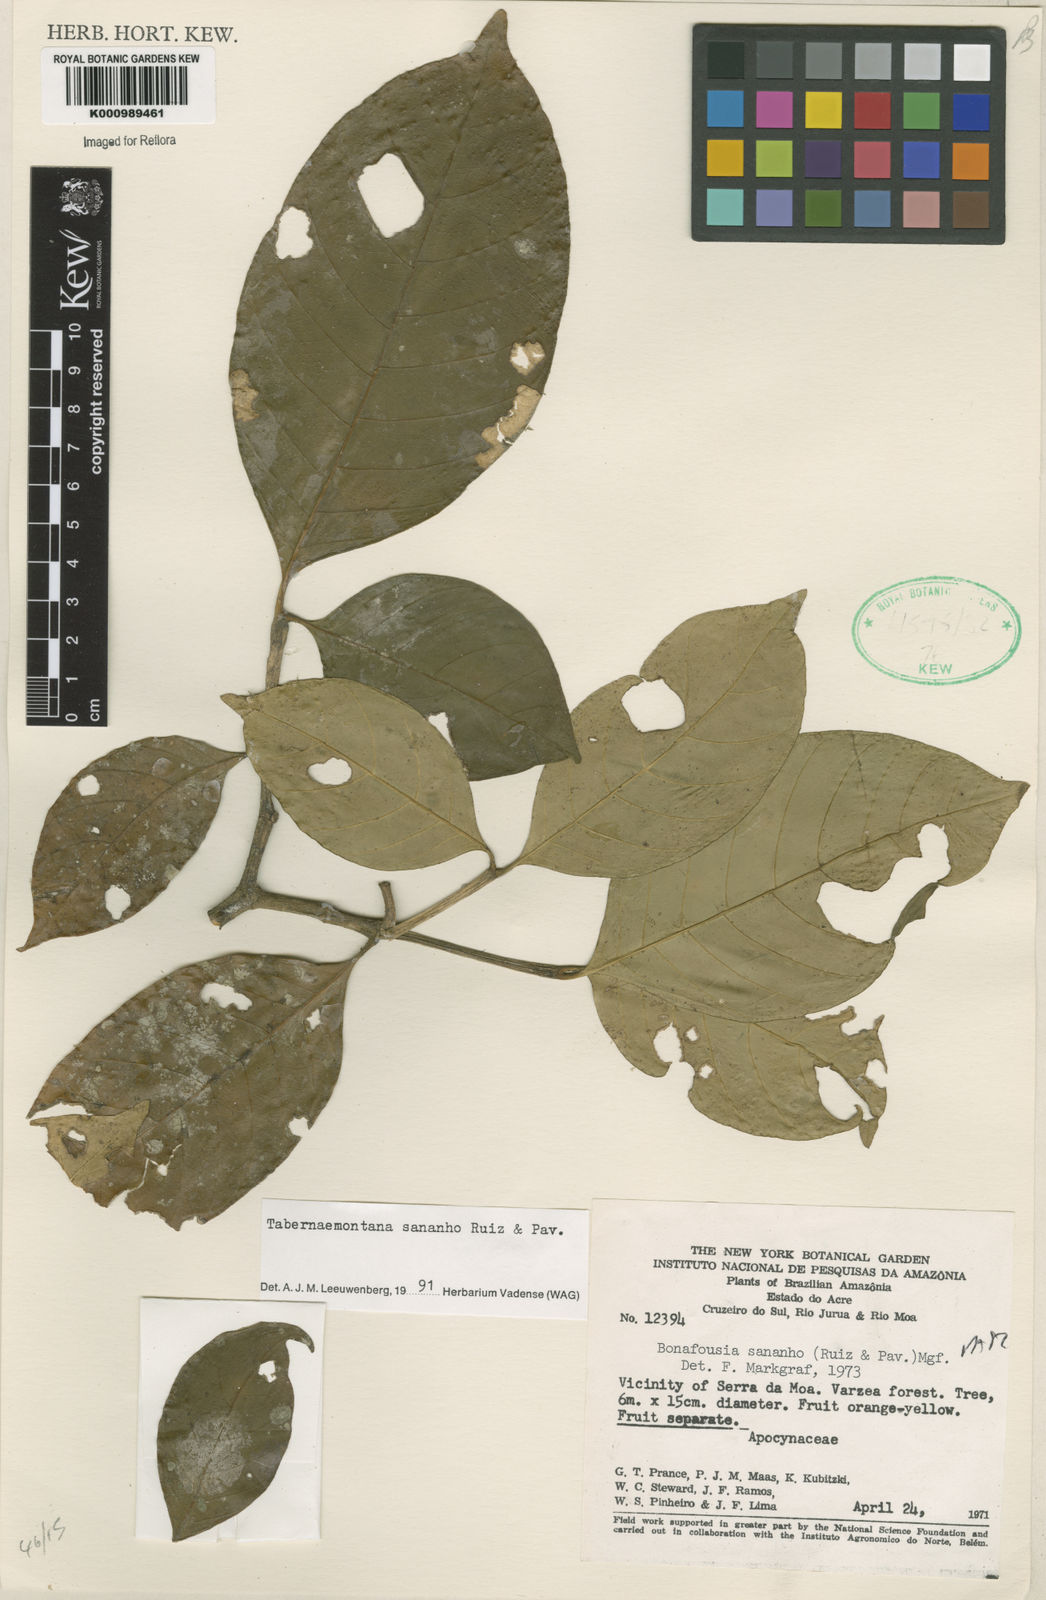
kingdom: Plantae
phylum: Tracheophyta
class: Magnoliopsida
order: Gentianales
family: Apocynaceae
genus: Tabernaemontana
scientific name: Tabernaemontana sananho
